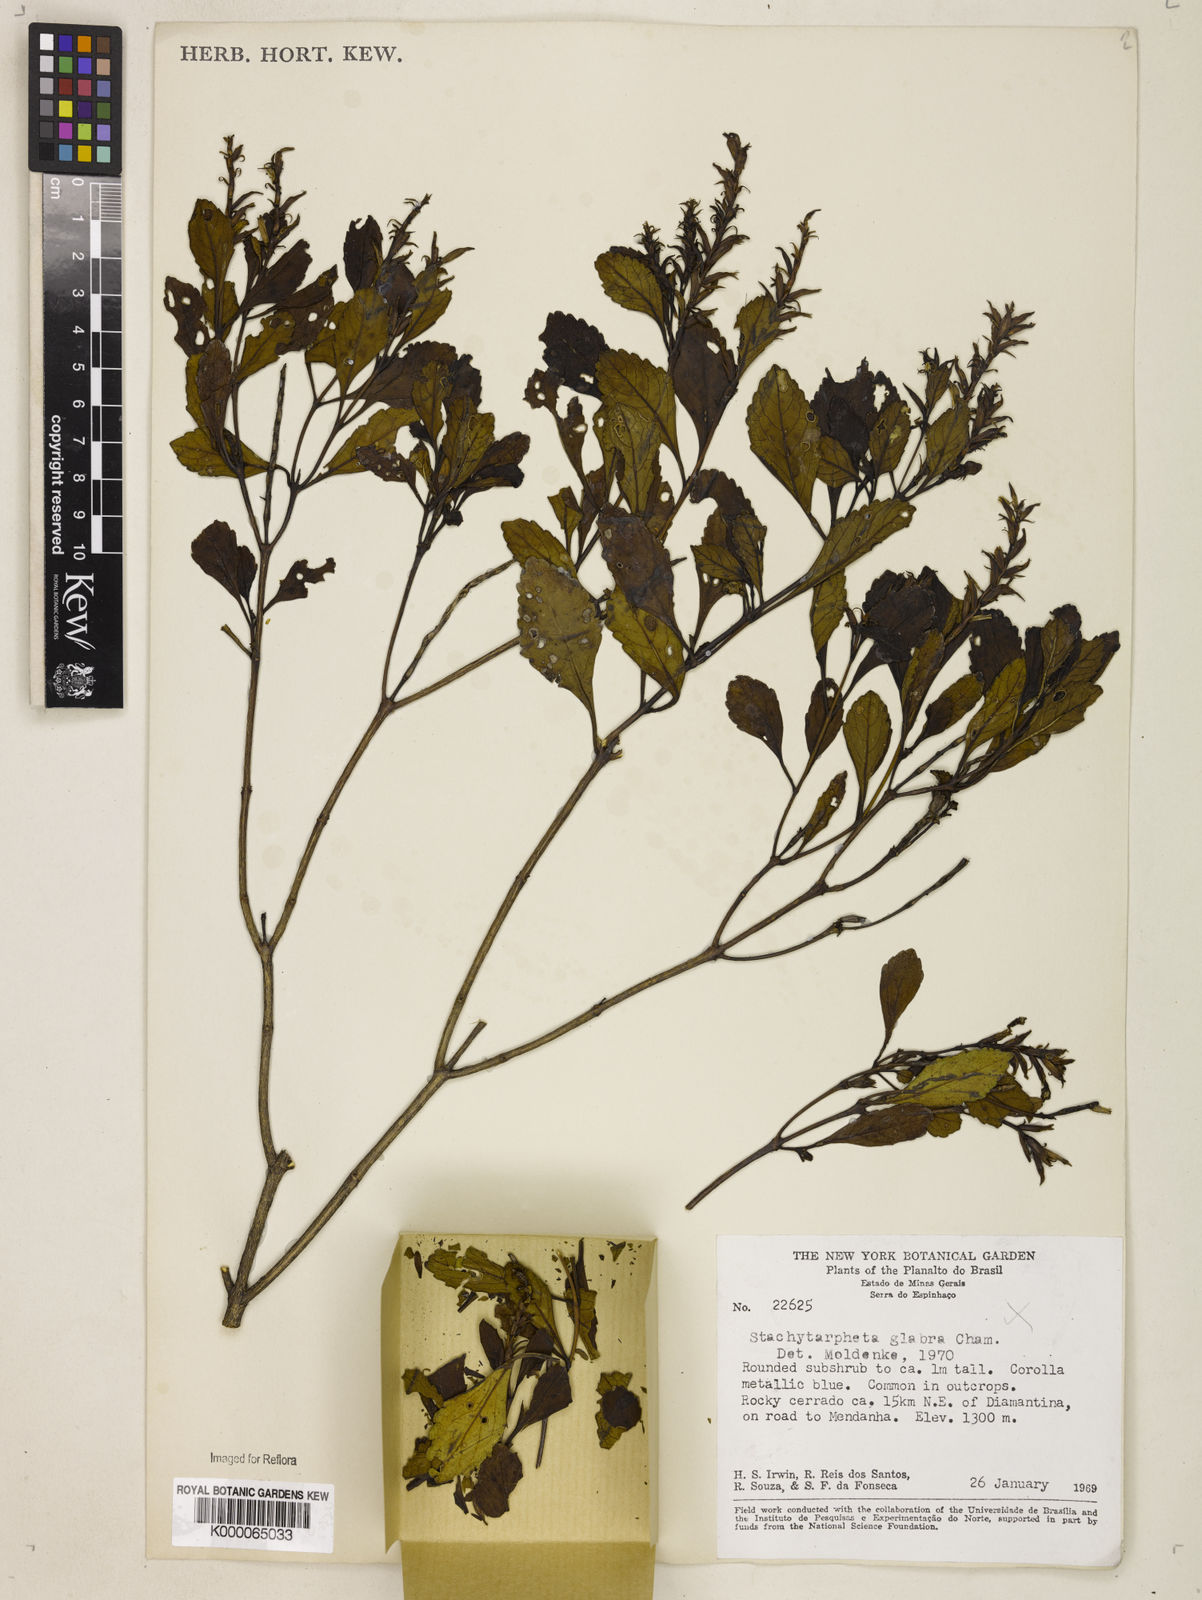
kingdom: Plantae
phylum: Tracheophyta
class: Magnoliopsida
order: Lamiales
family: Verbenaceae
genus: Stachytarpheta
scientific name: Stachytarpheta glabra
